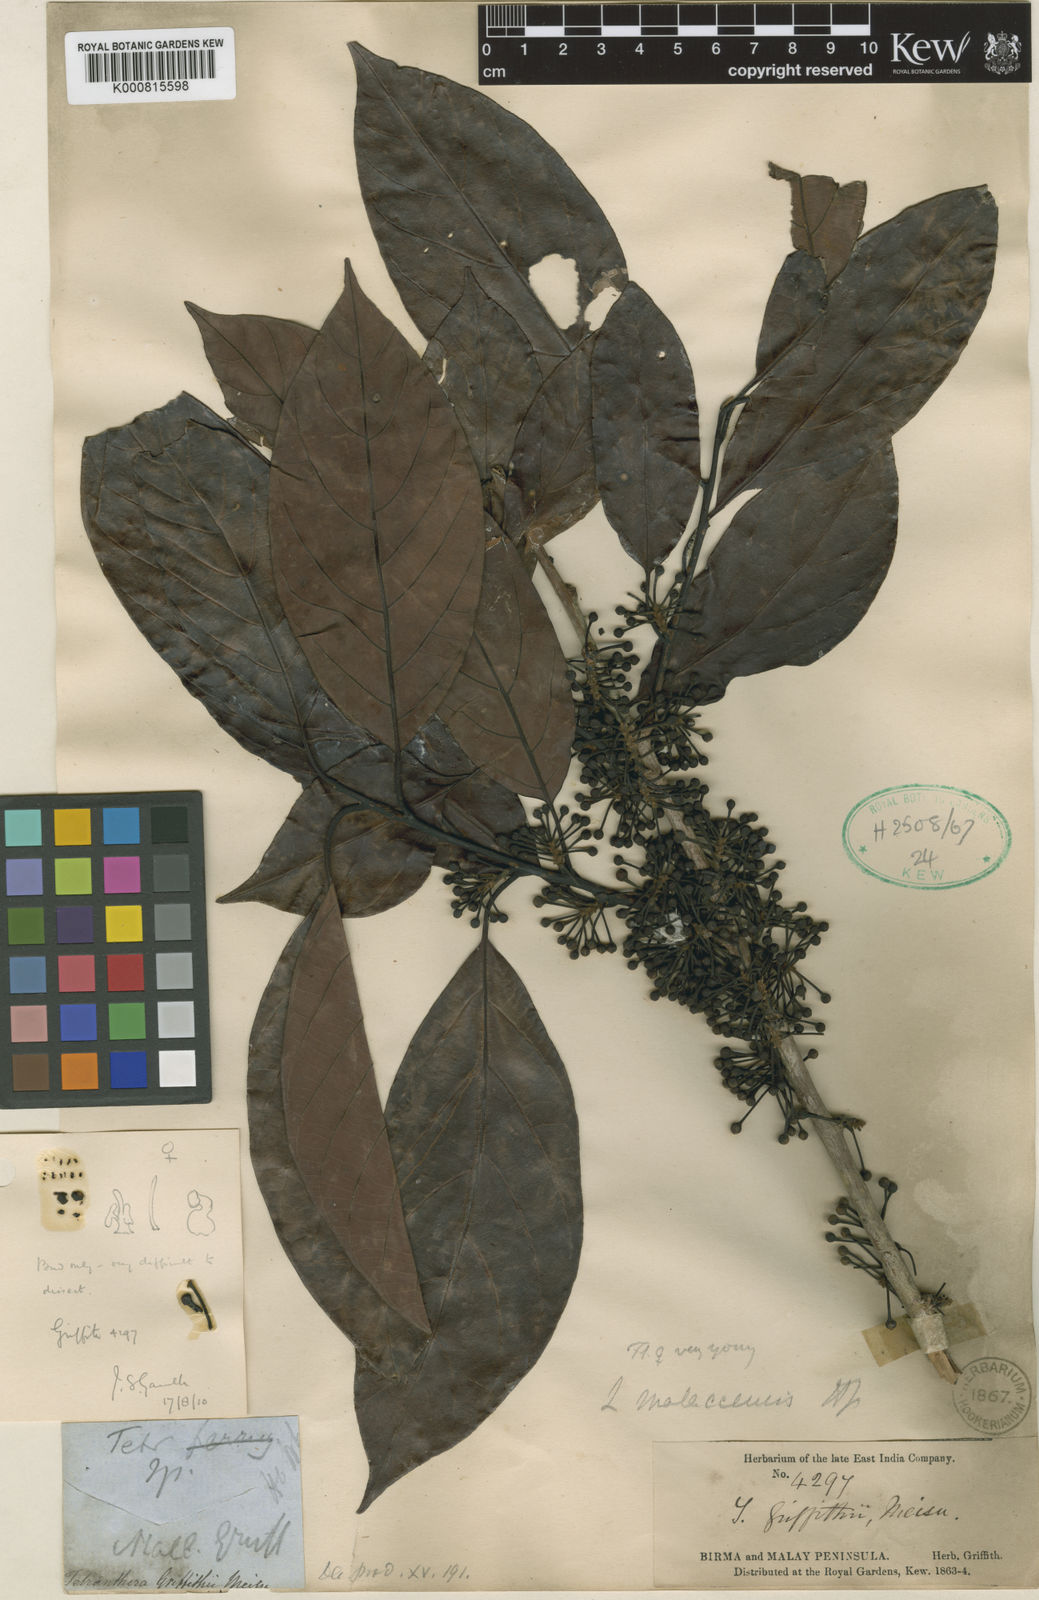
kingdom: Plantae
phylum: Tracheophyta
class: Magnoliopsida
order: Laurales
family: Lauraceae
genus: Lindera
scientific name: Lindera lucida
